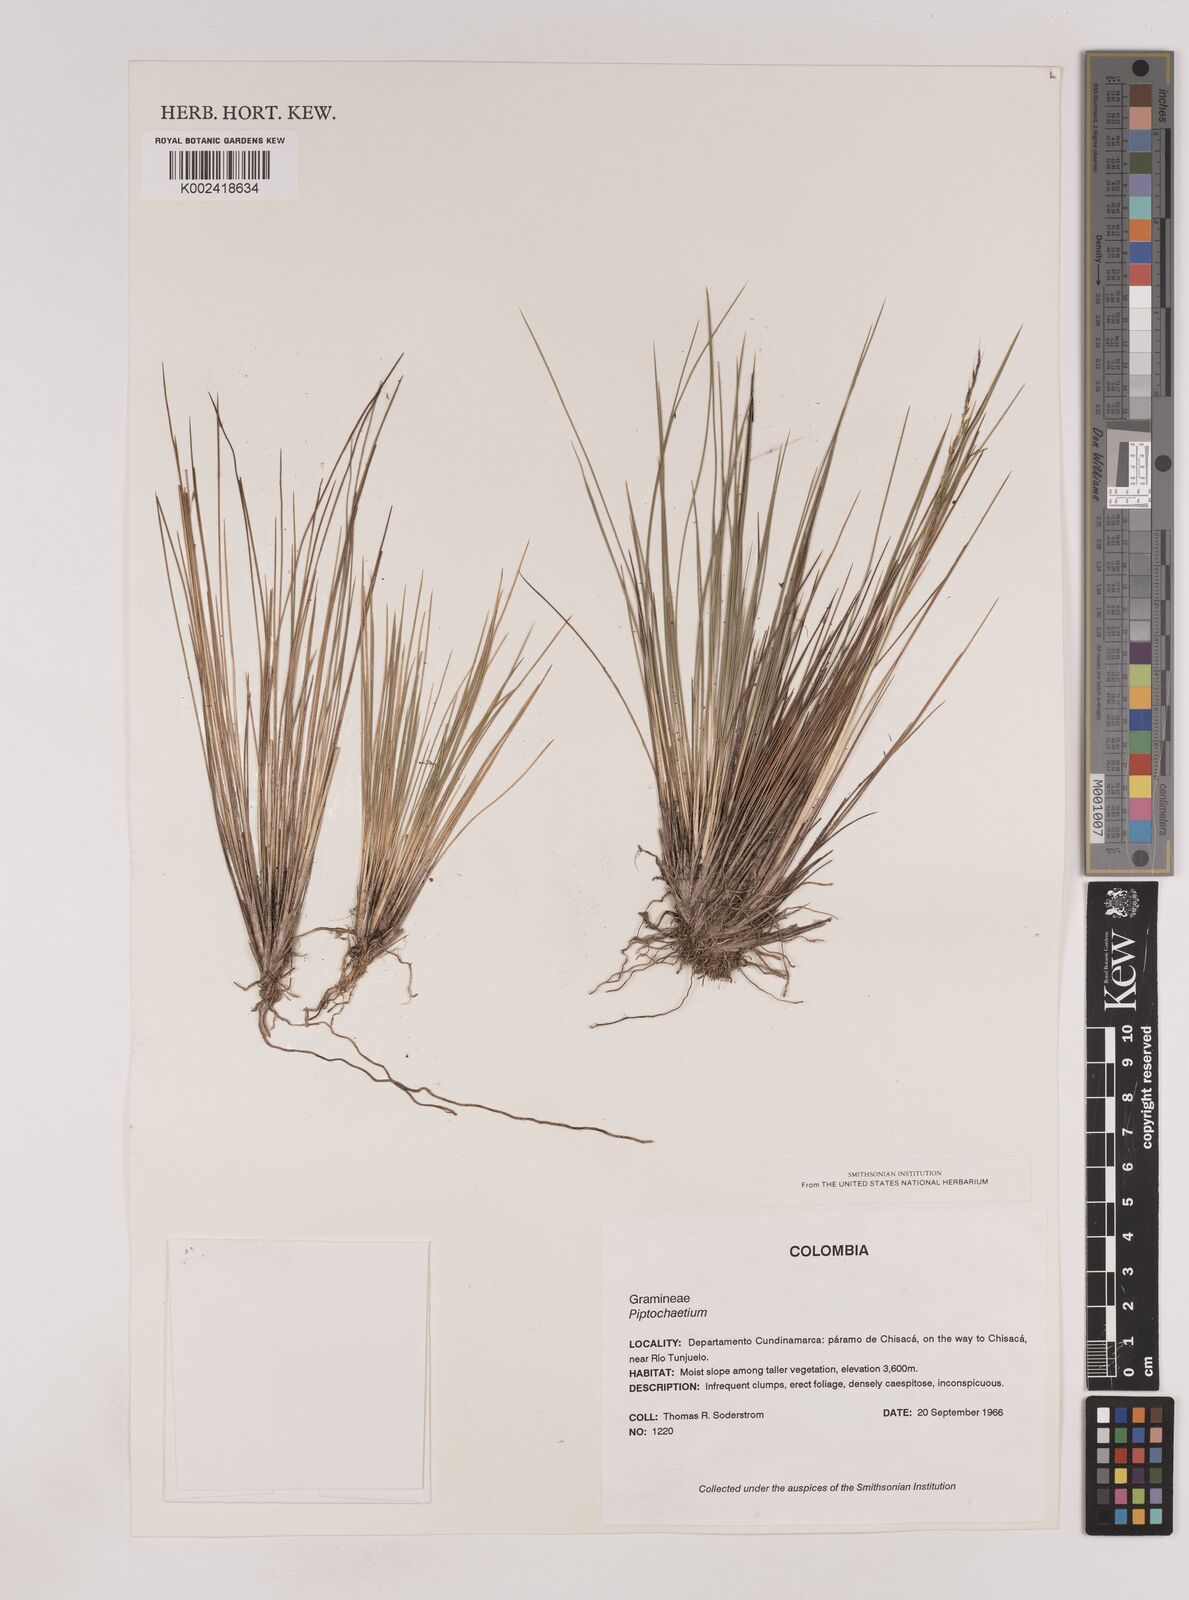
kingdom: Plantae
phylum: Tracheophyta
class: Liliopsida
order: Poales
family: Poaceae
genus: Lorenzochloa
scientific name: Lorenzochloa erectifolia
